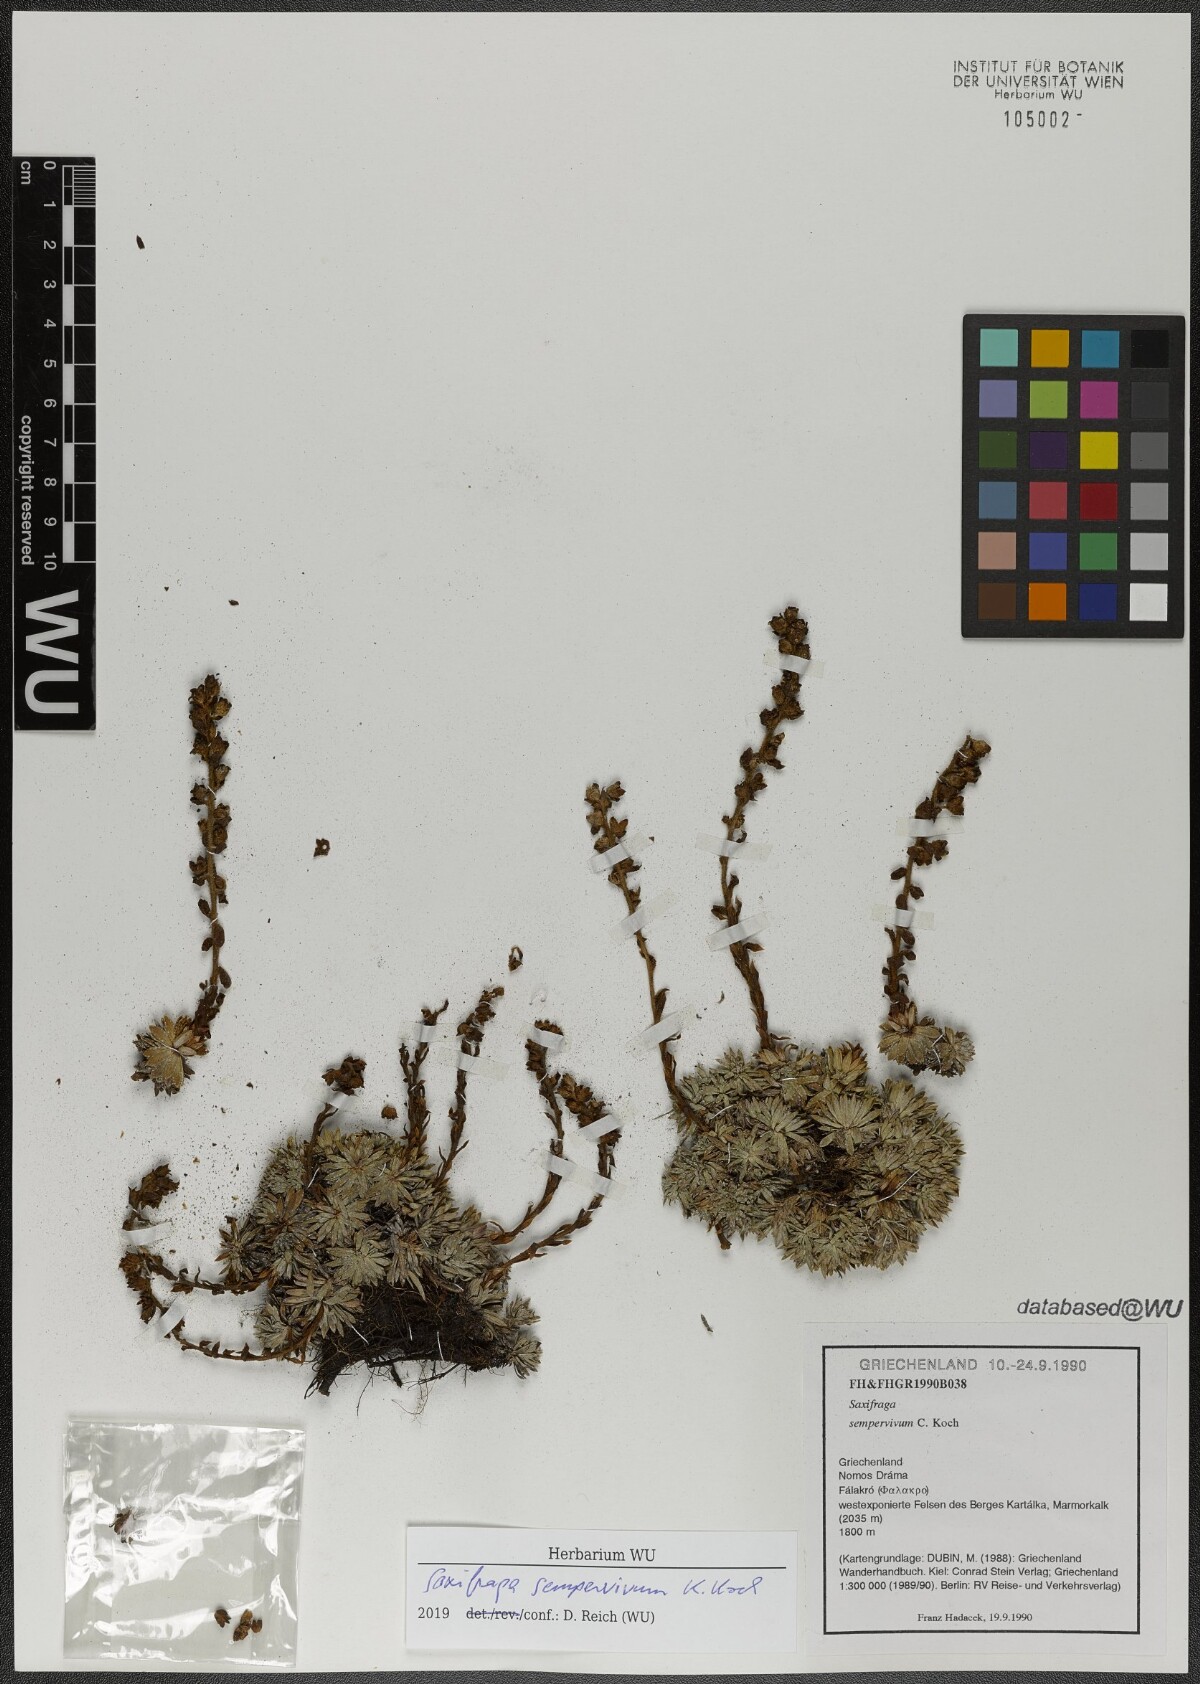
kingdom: Plantae
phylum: Tracheophyta
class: Magnoliopsida
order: Saxifragales
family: Saxifragaceae
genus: Saxifraga
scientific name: Saxifraga sempervivum
